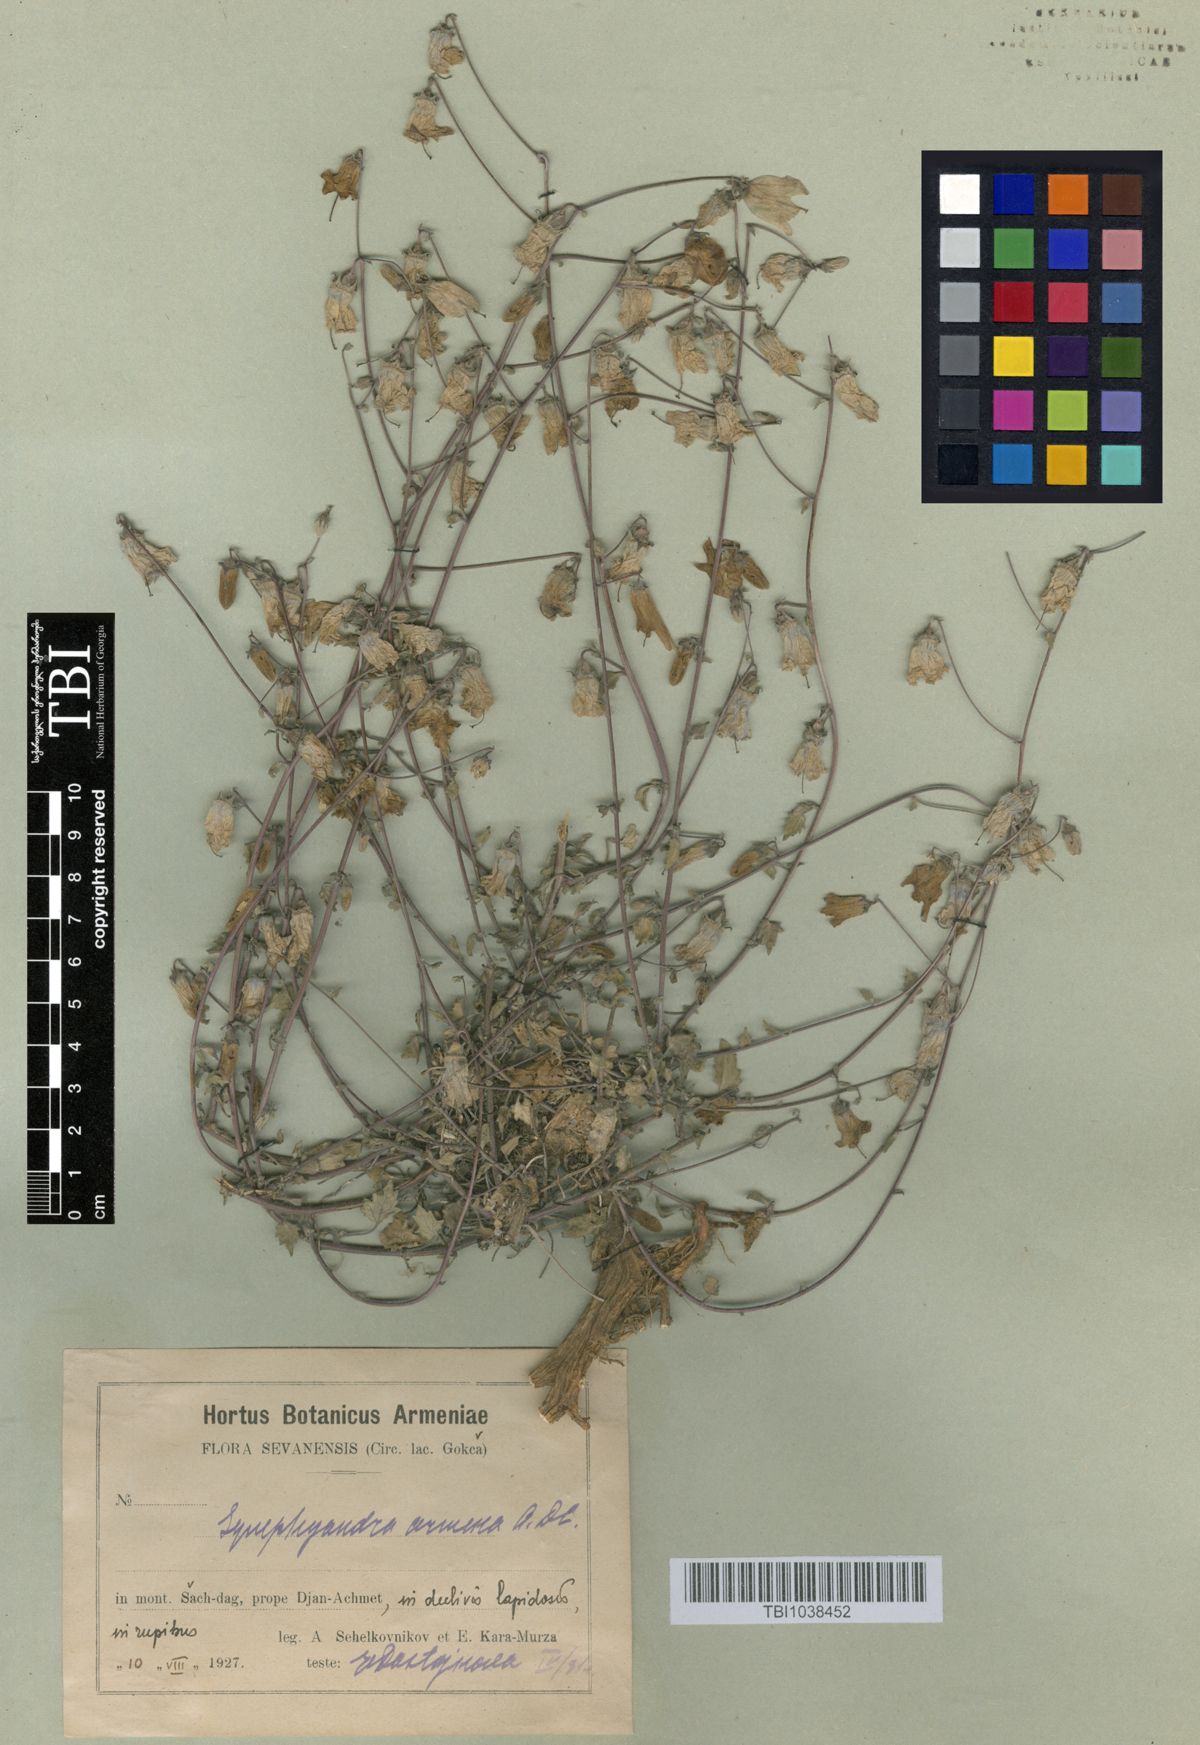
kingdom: Plantae
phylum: Tracheophyta
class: Magnoliopsida
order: Asterales
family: Campanulaceae
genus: Campanula
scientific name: Campanula armena
